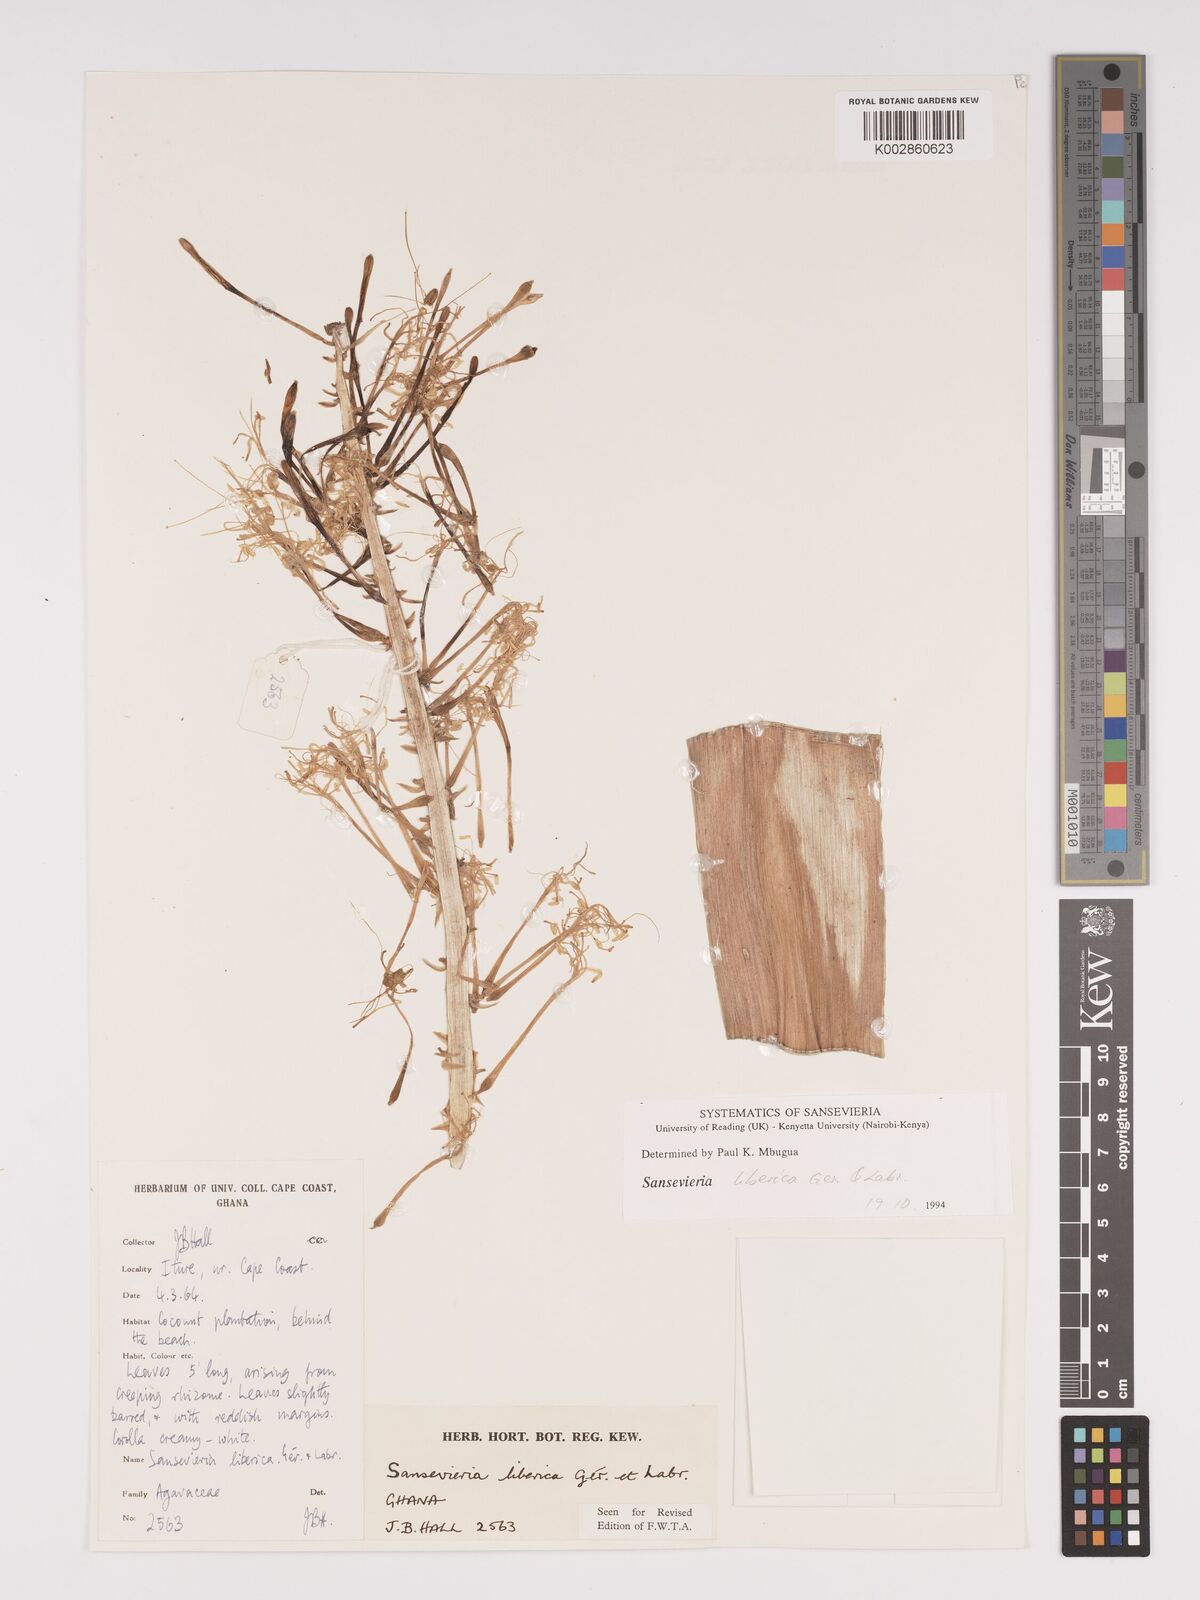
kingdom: Plantae
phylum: Tracheophyta
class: Liliopsida
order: Asparagales
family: Asparagaceae
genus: Dracaena
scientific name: Dracaena liberica
